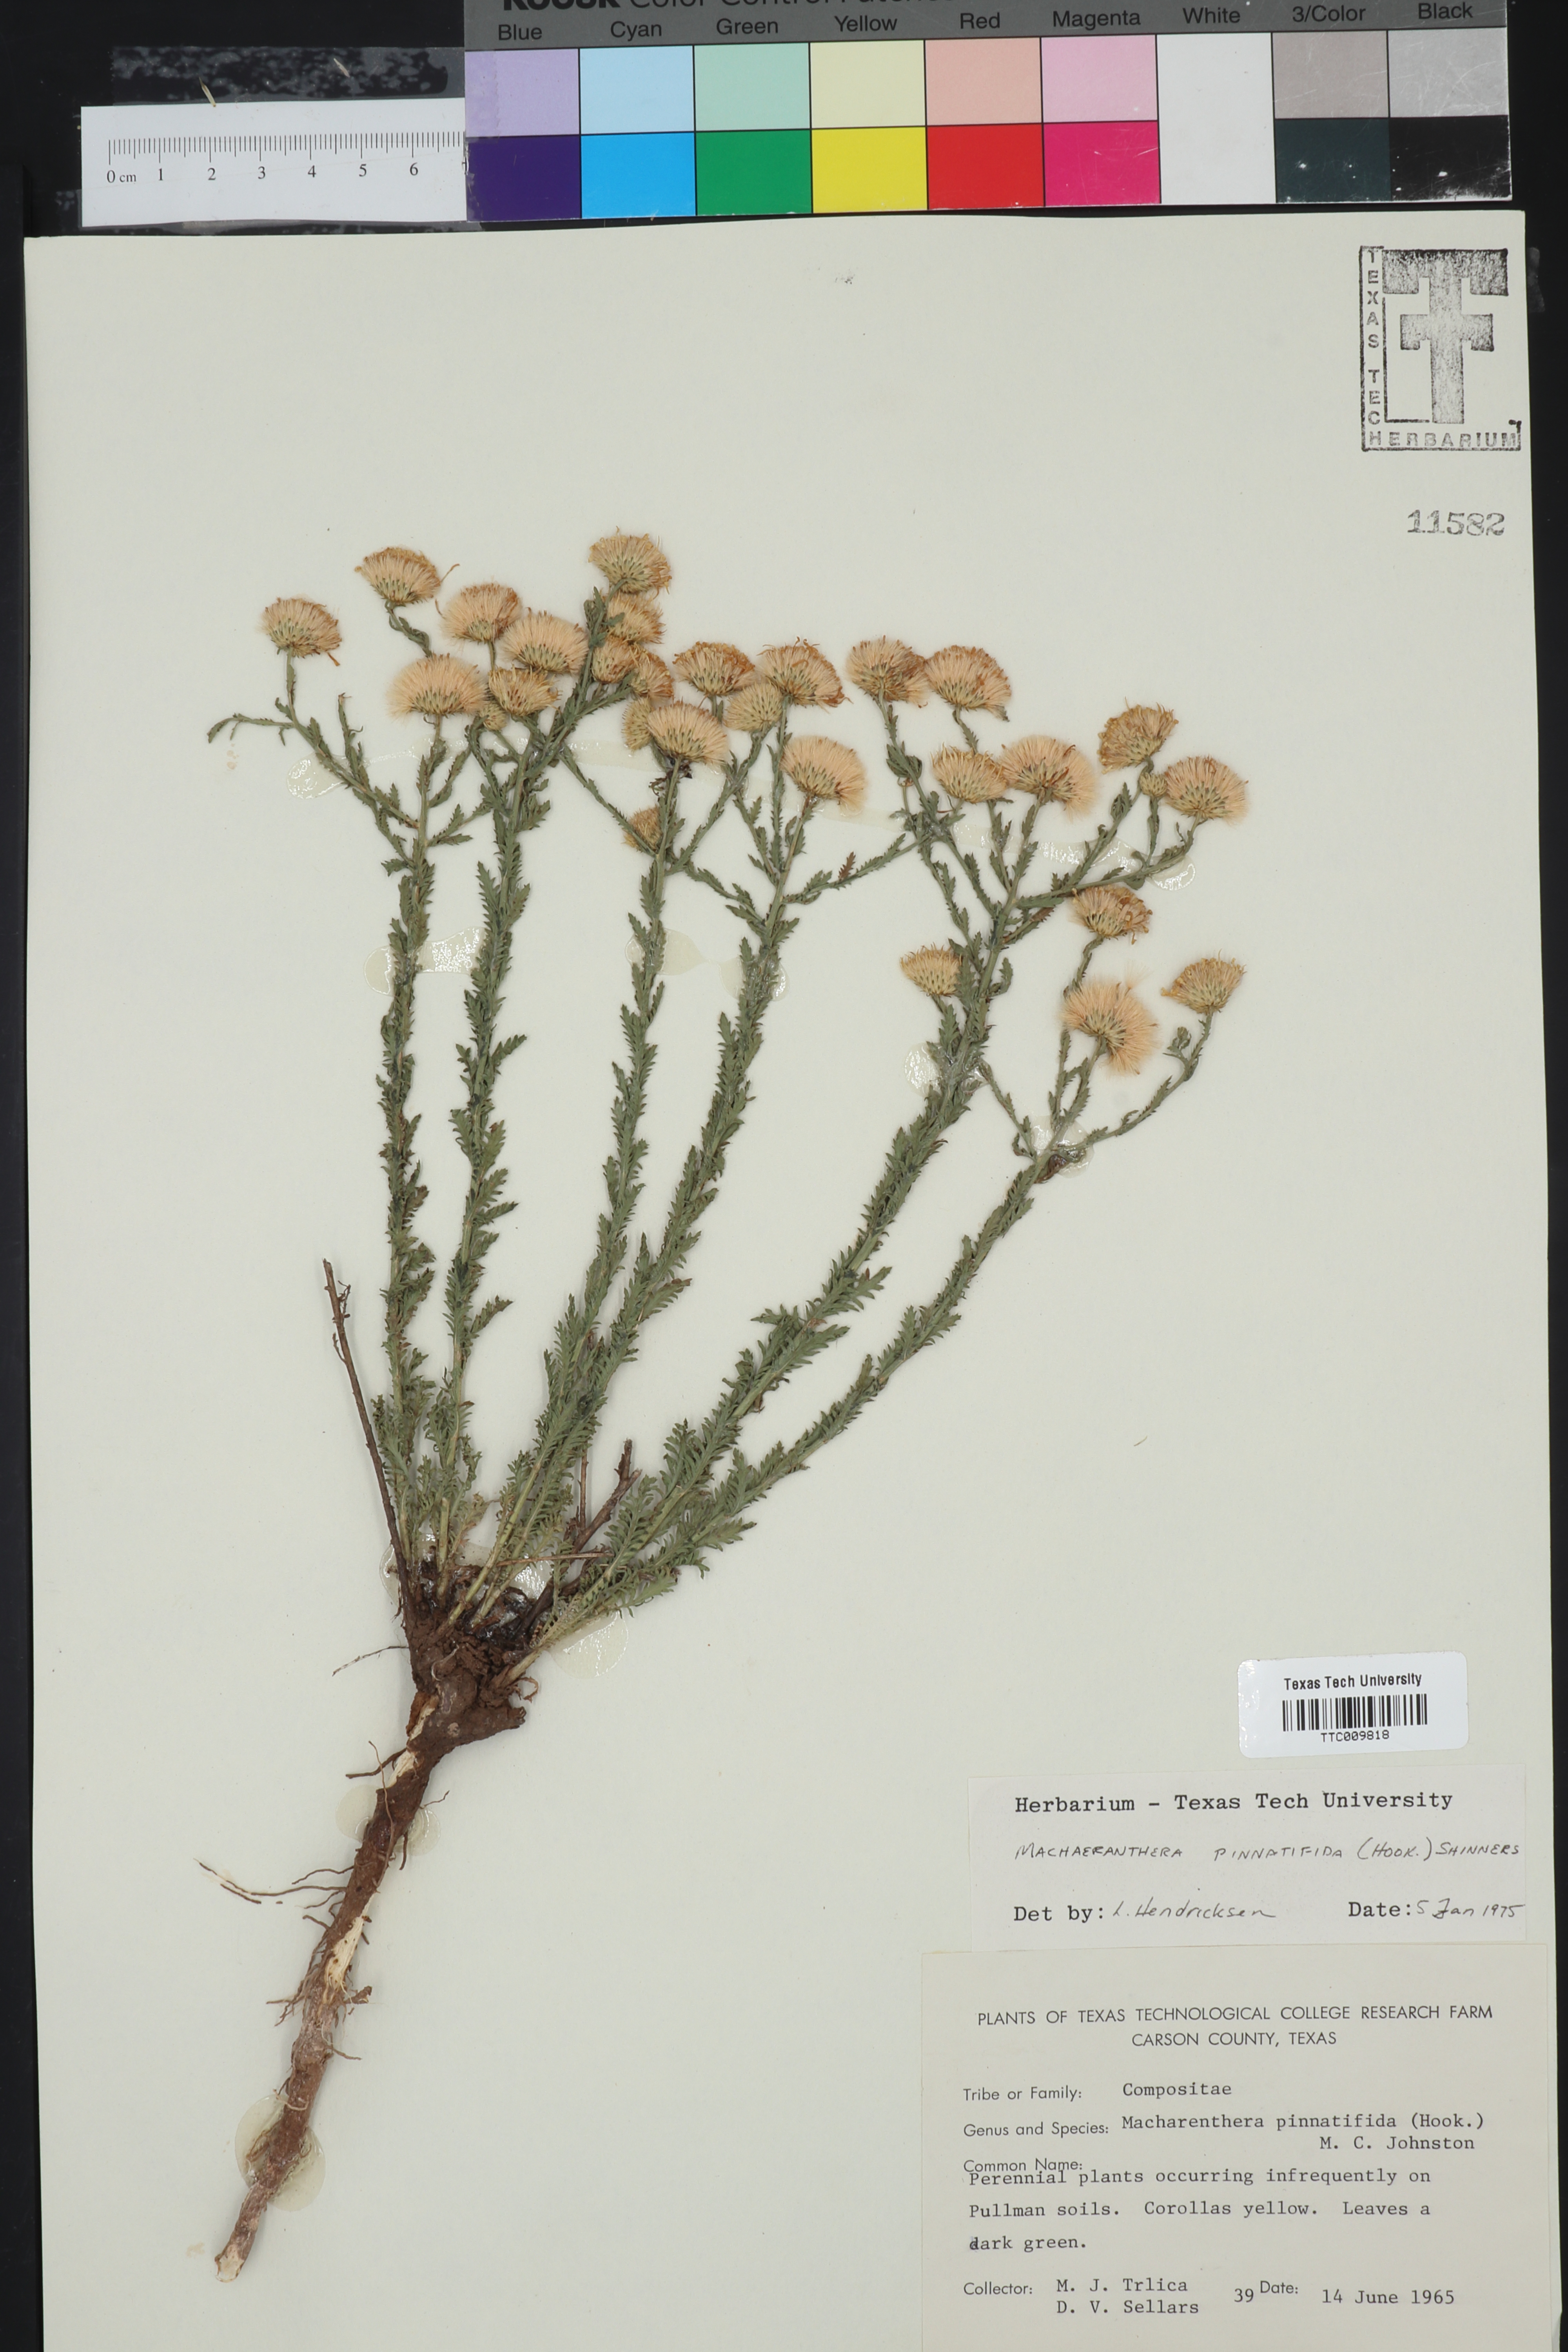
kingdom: Plantae
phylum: Tracheophyta
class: Magnoliopsida
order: Asterales
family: Asteraceae
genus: Xanthisma
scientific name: Xanthisma spinulosum
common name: Spiny goldenweed
